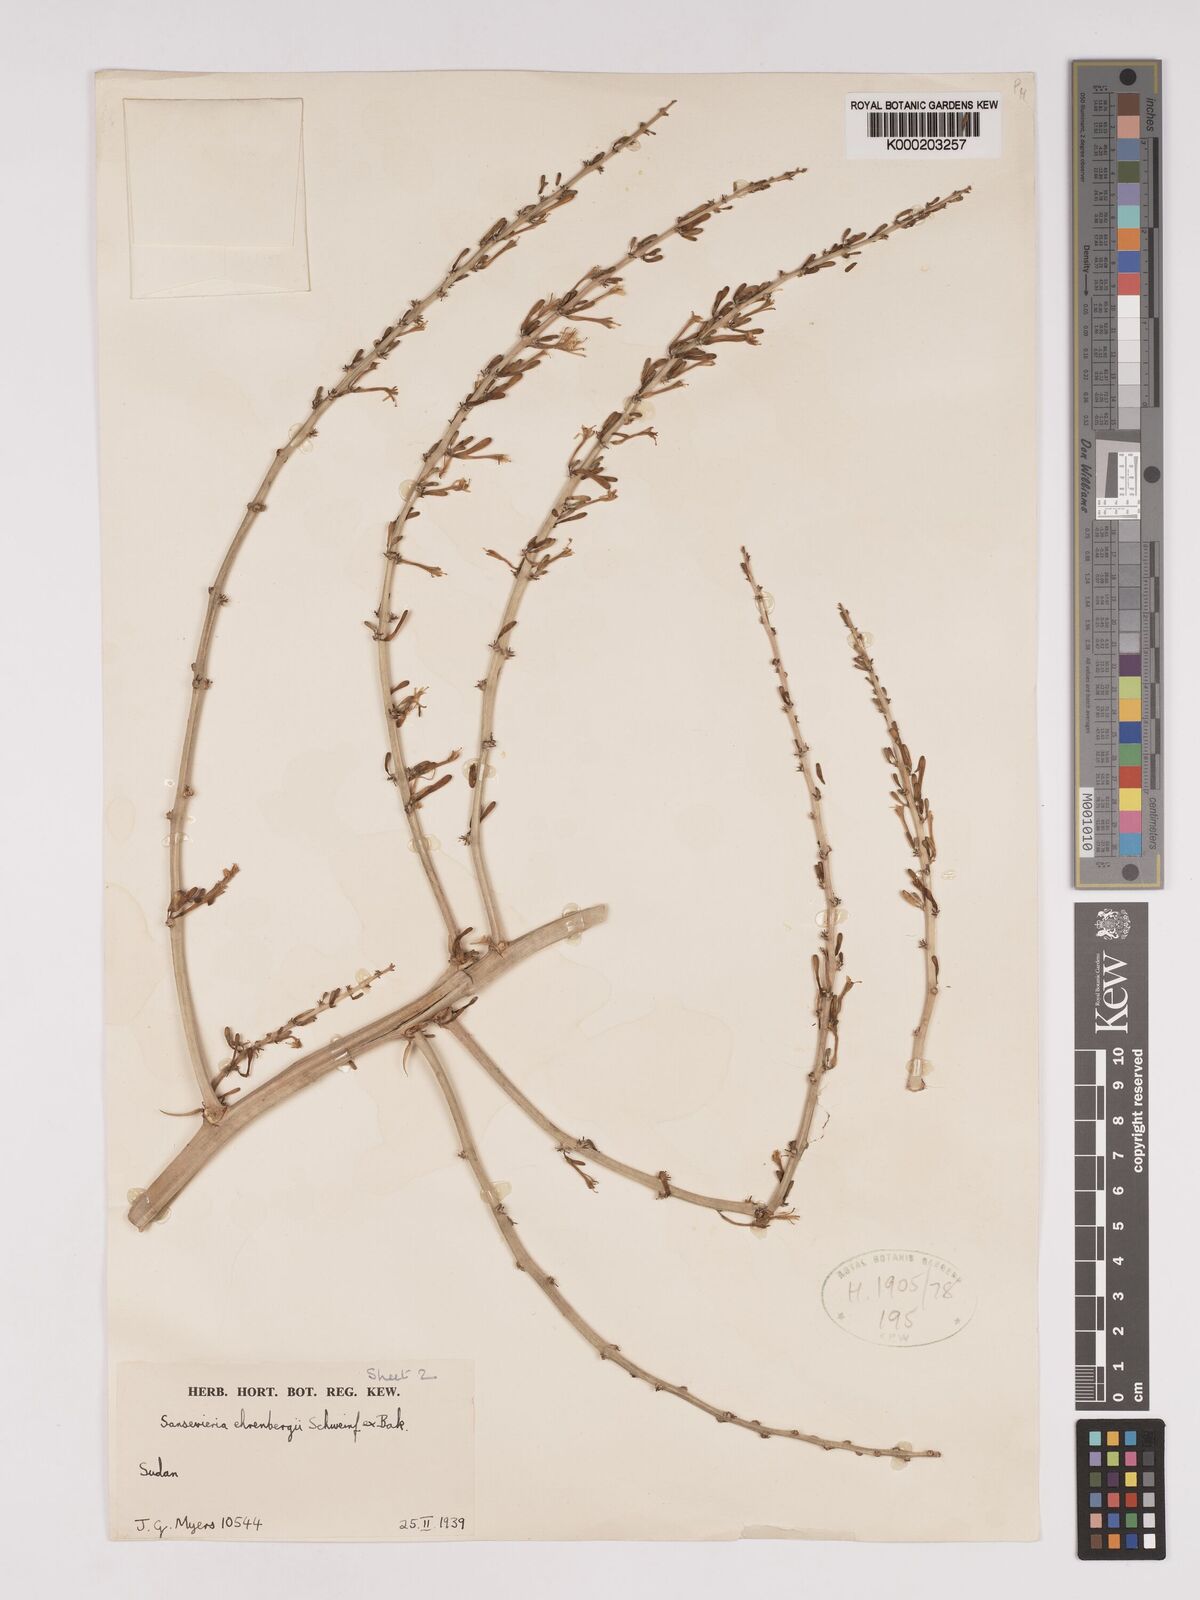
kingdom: Plantae
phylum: Tracheophyta
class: Liliopsida
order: Asparagales
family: Asparagaceae
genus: Dracaena
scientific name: Dracaena hanningtonii
